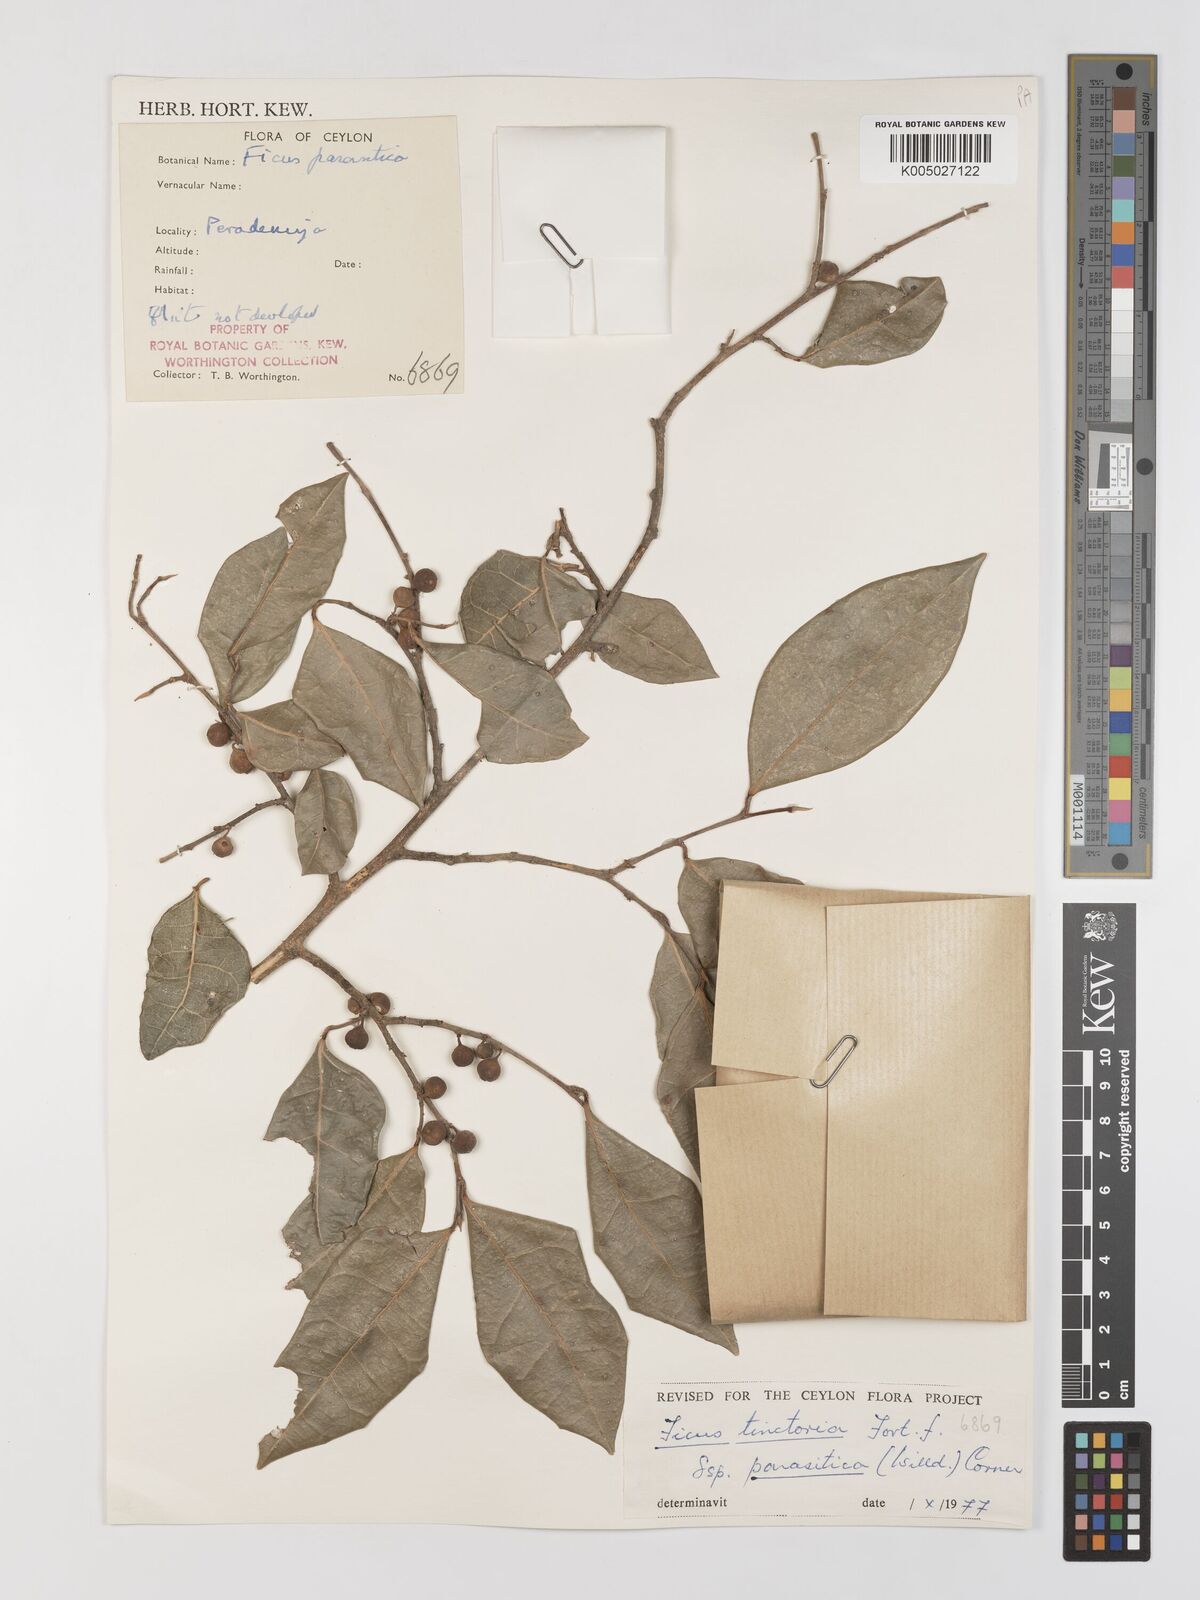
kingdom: Plantae
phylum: Tracheophyta
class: Magnoliopsida
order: Rosales
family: Moraceae
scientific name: Moraceae
